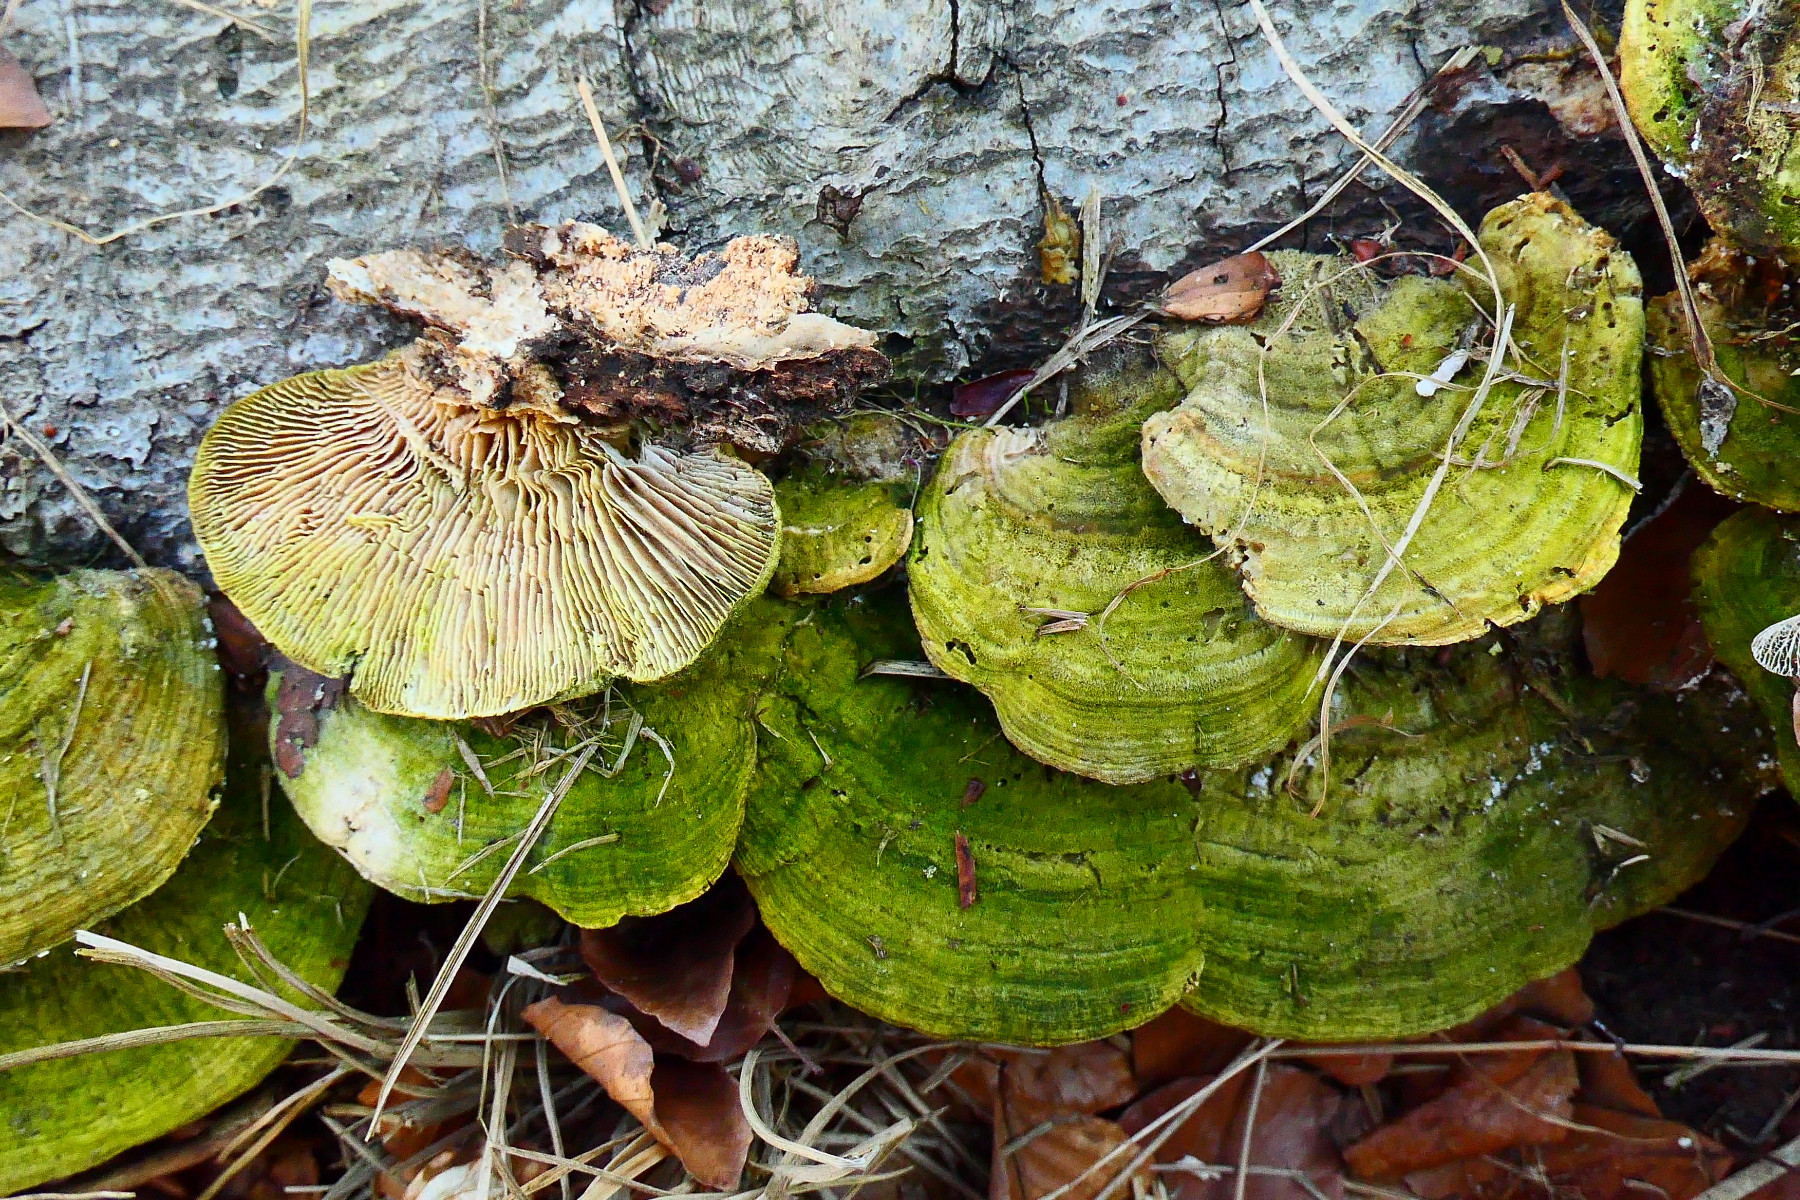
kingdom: Fungi
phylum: Basidiomycota
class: Agaricomycetes
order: Polyporales
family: Polyporaceae
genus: Lenzites
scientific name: Lenzites betulinus
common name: birke-læderporesvamp
